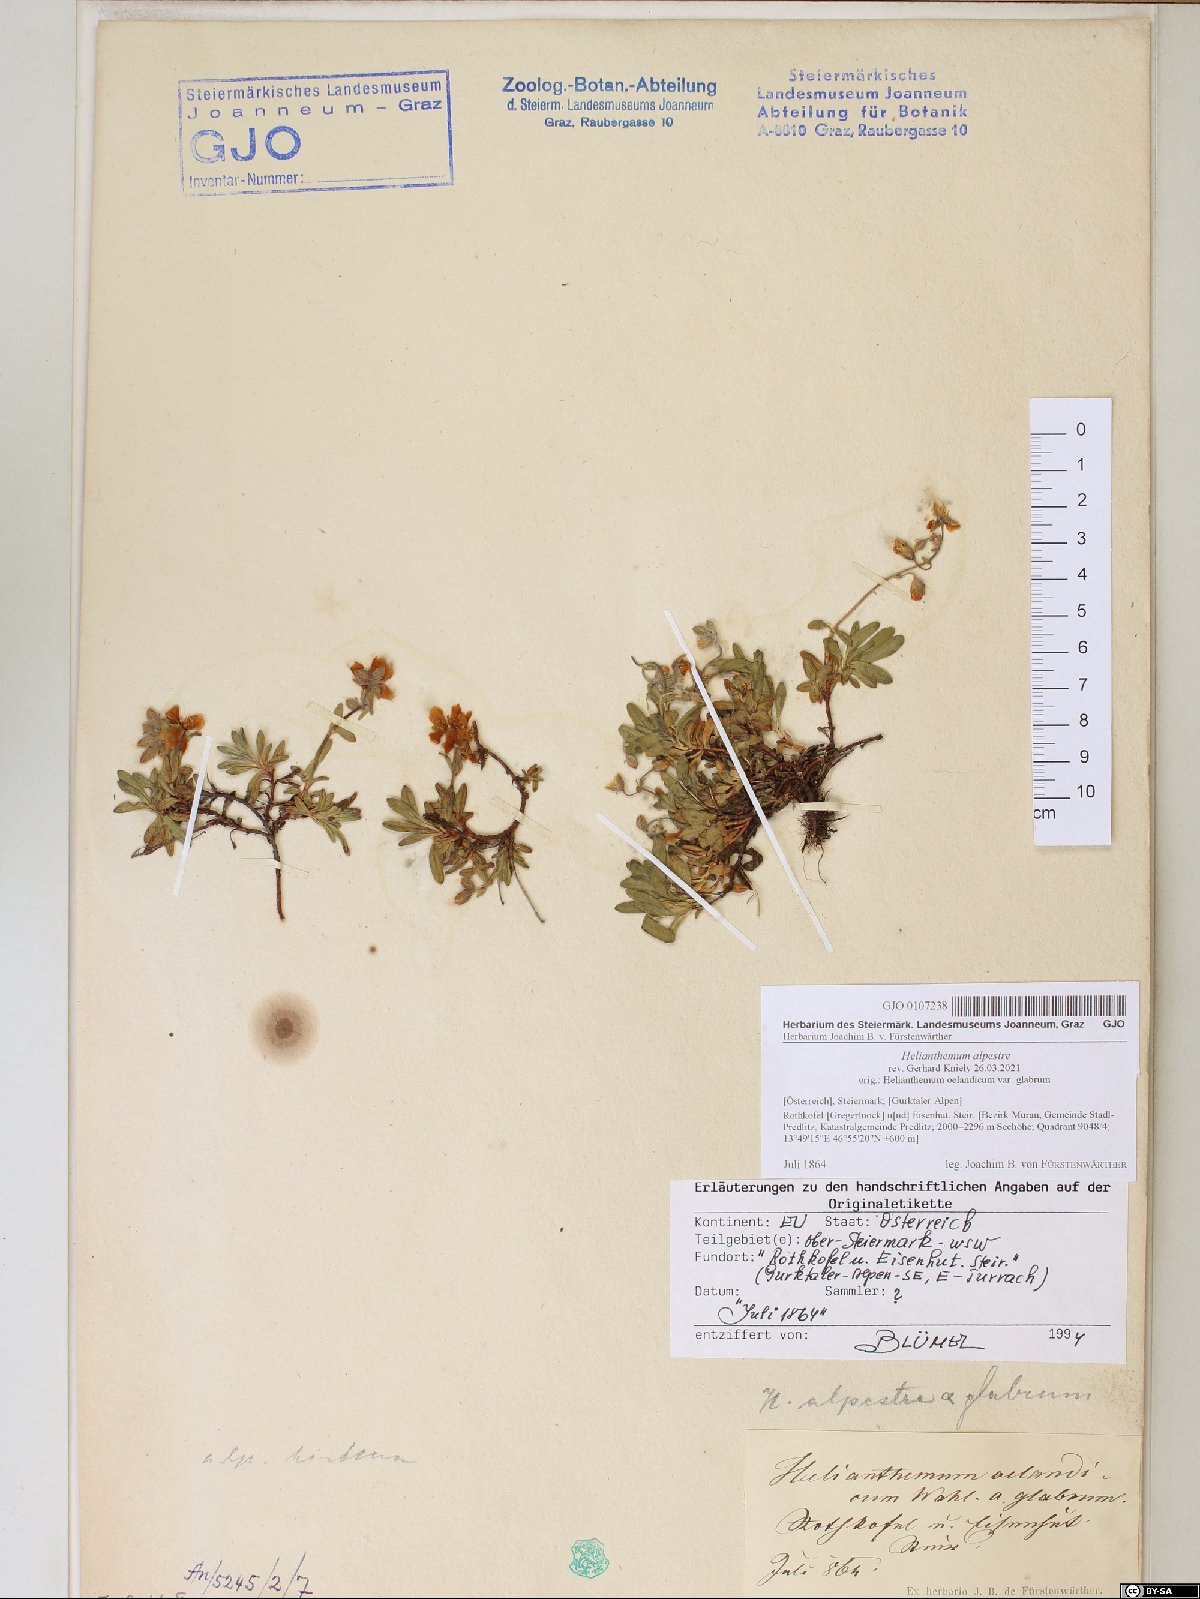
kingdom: Plantae
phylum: Tracheophyta
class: Magnoliopsida
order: Malvales
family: Cistaceae
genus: Helianthemum
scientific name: Helianthemum alpestre
